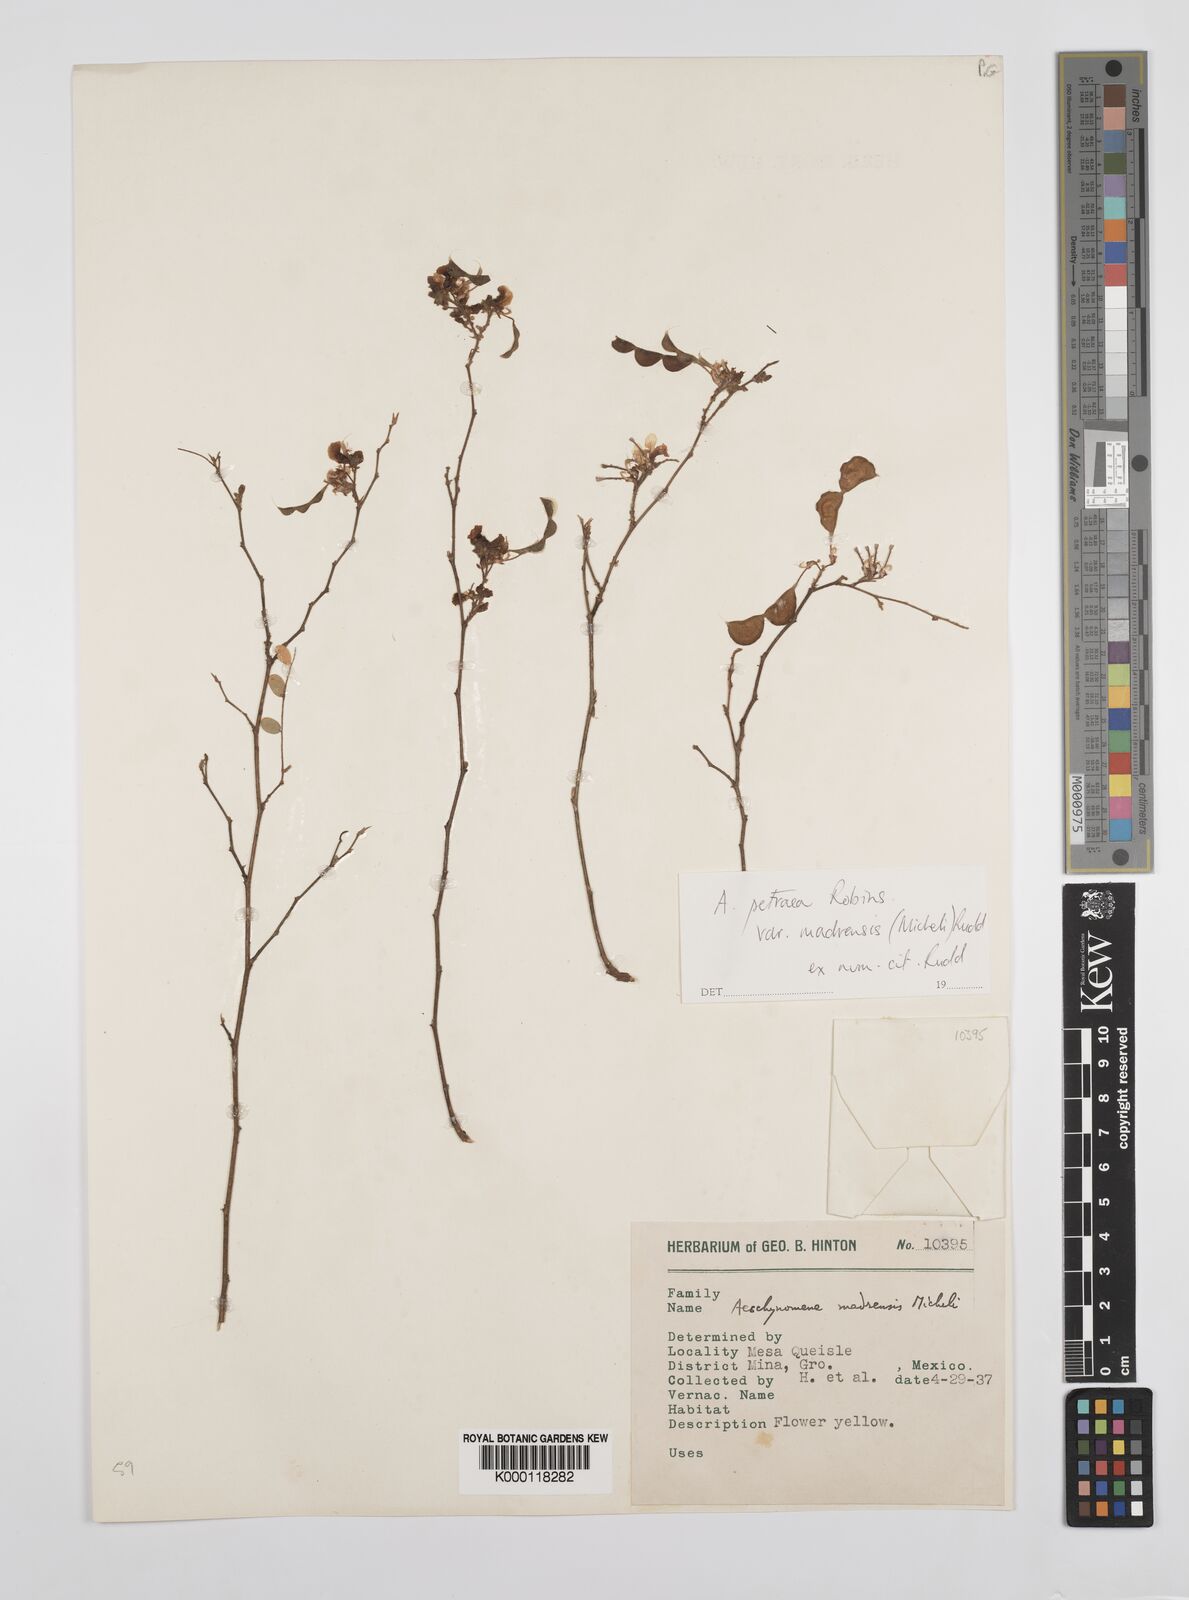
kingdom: Plantae
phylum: Tracheophyta
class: Magnoliopsida
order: Fabales
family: Fabaceae
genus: Ctenodon
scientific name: Ctenodon petraeus
